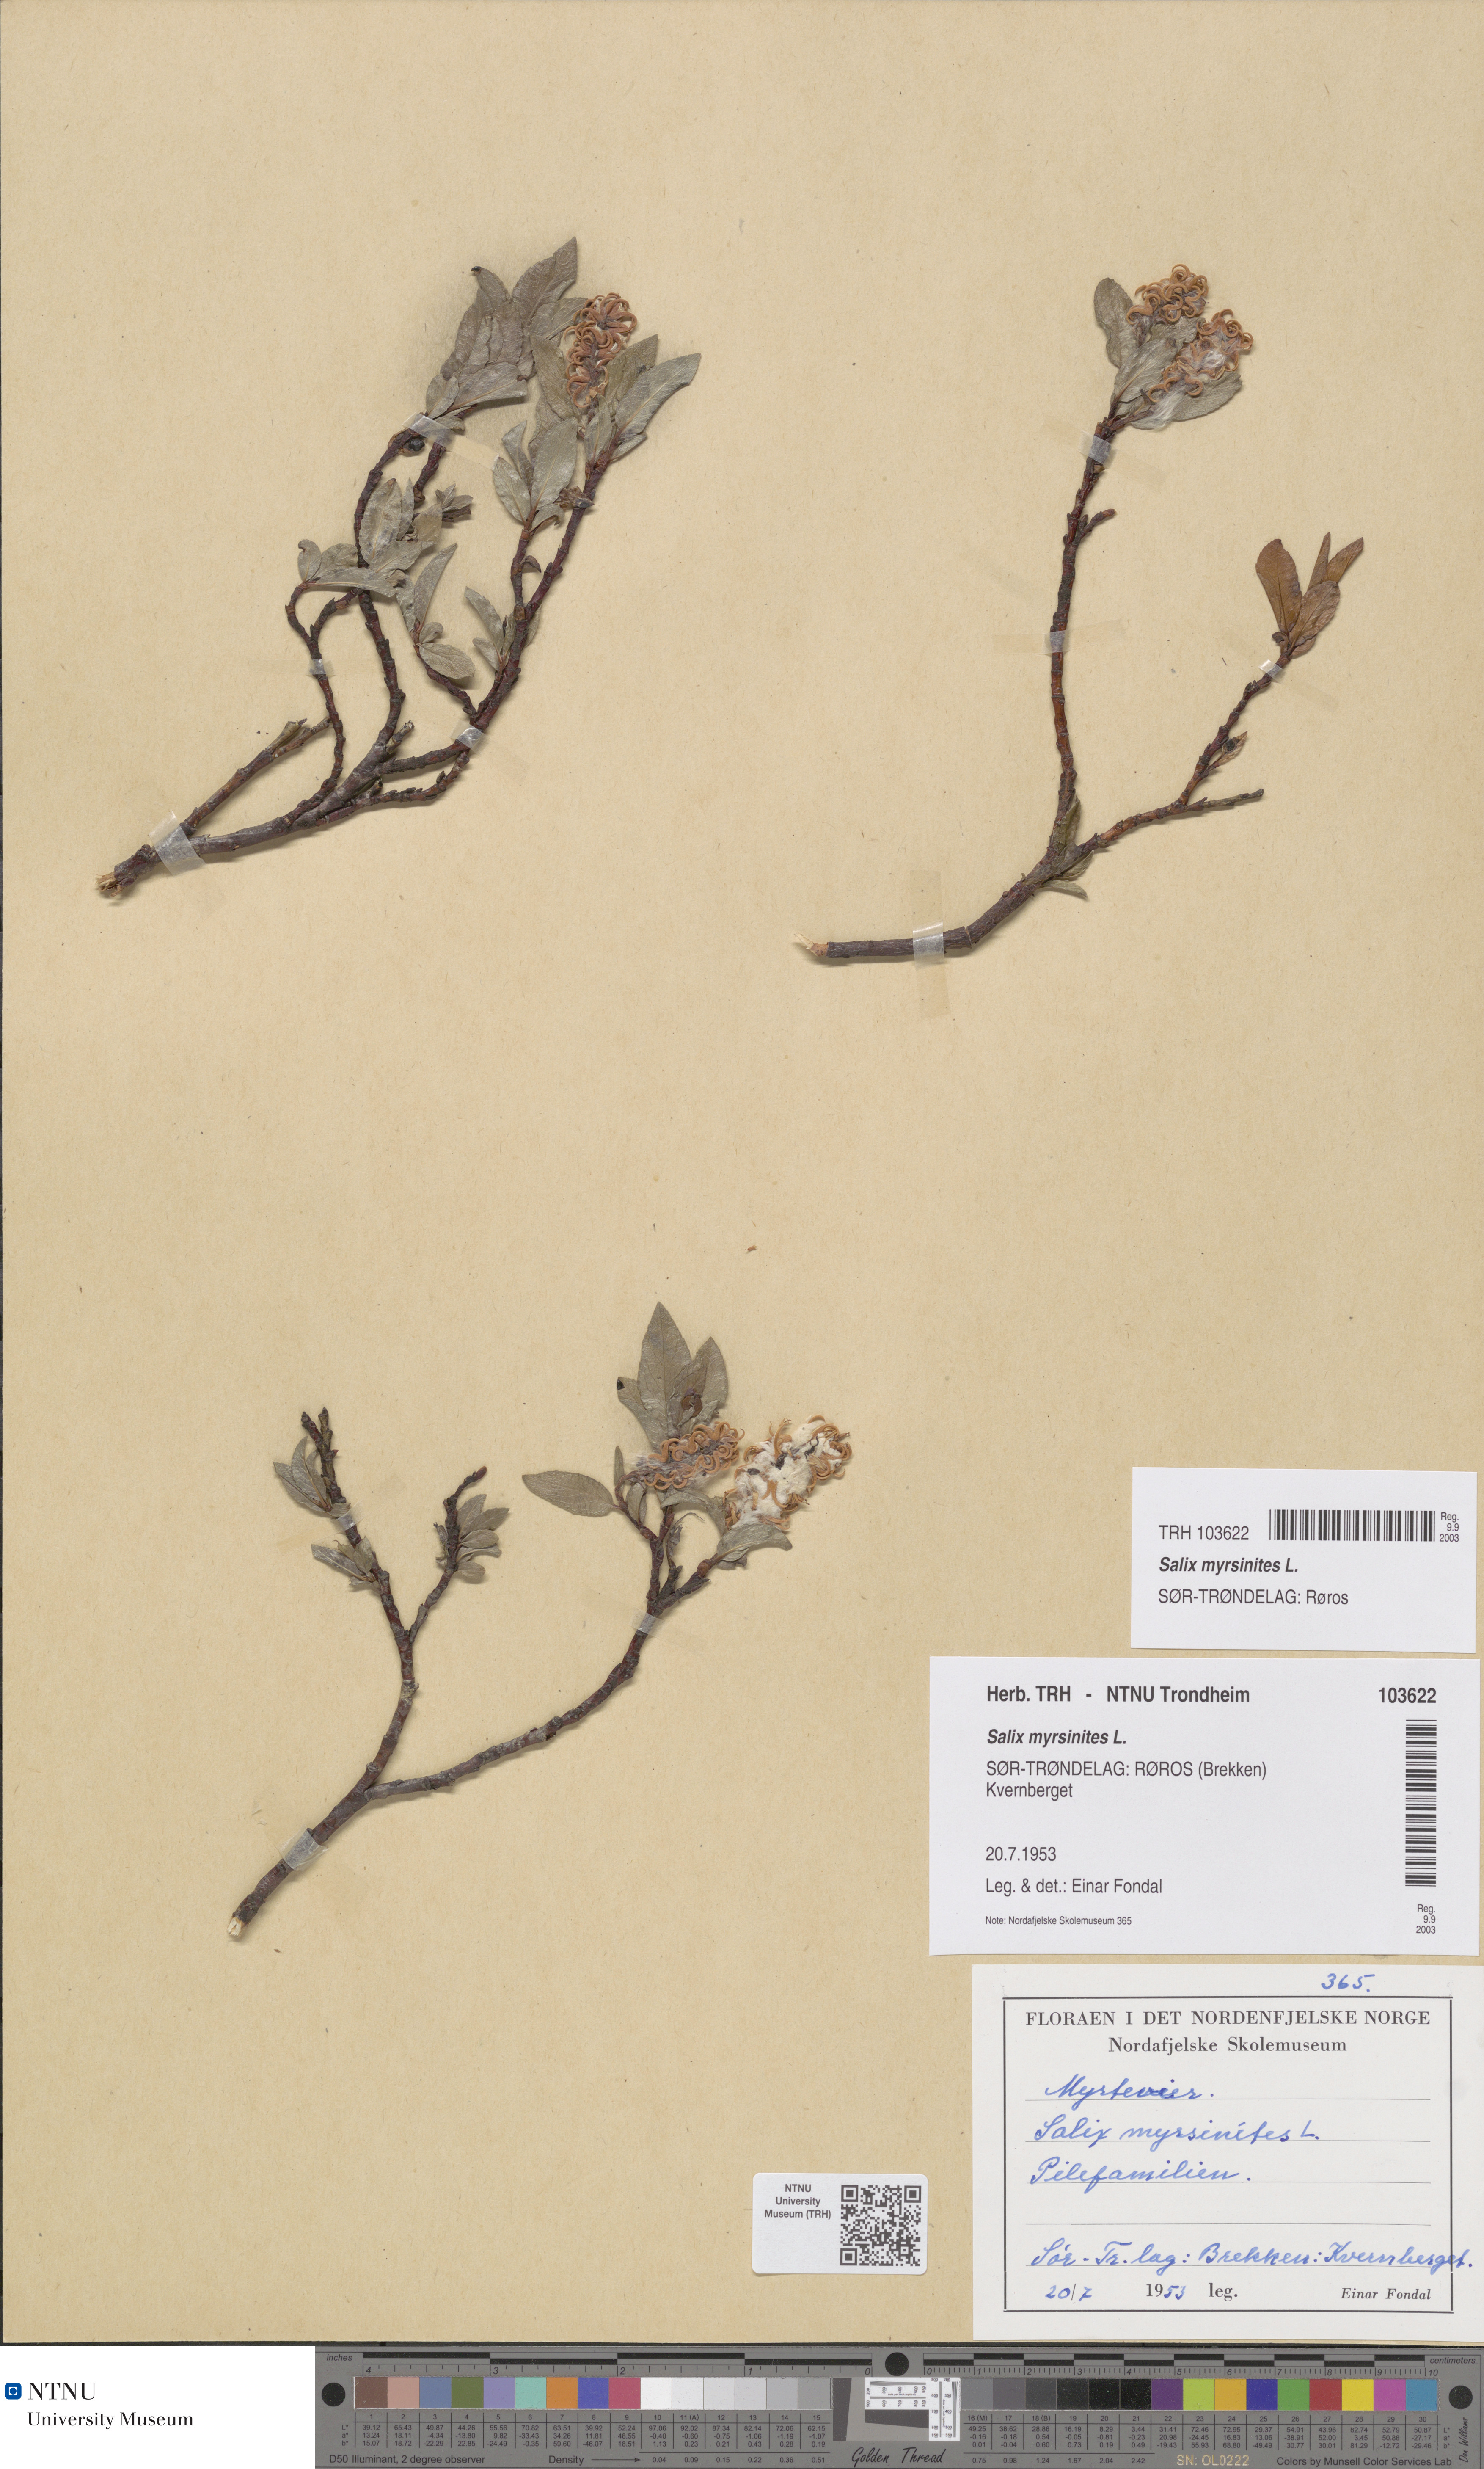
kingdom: Plantae
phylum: Tracheophyta
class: Magnoliopsida
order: Malpighiales
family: Salicaceae
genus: Salix
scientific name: Salix myrsinites
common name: Myrtle willow
